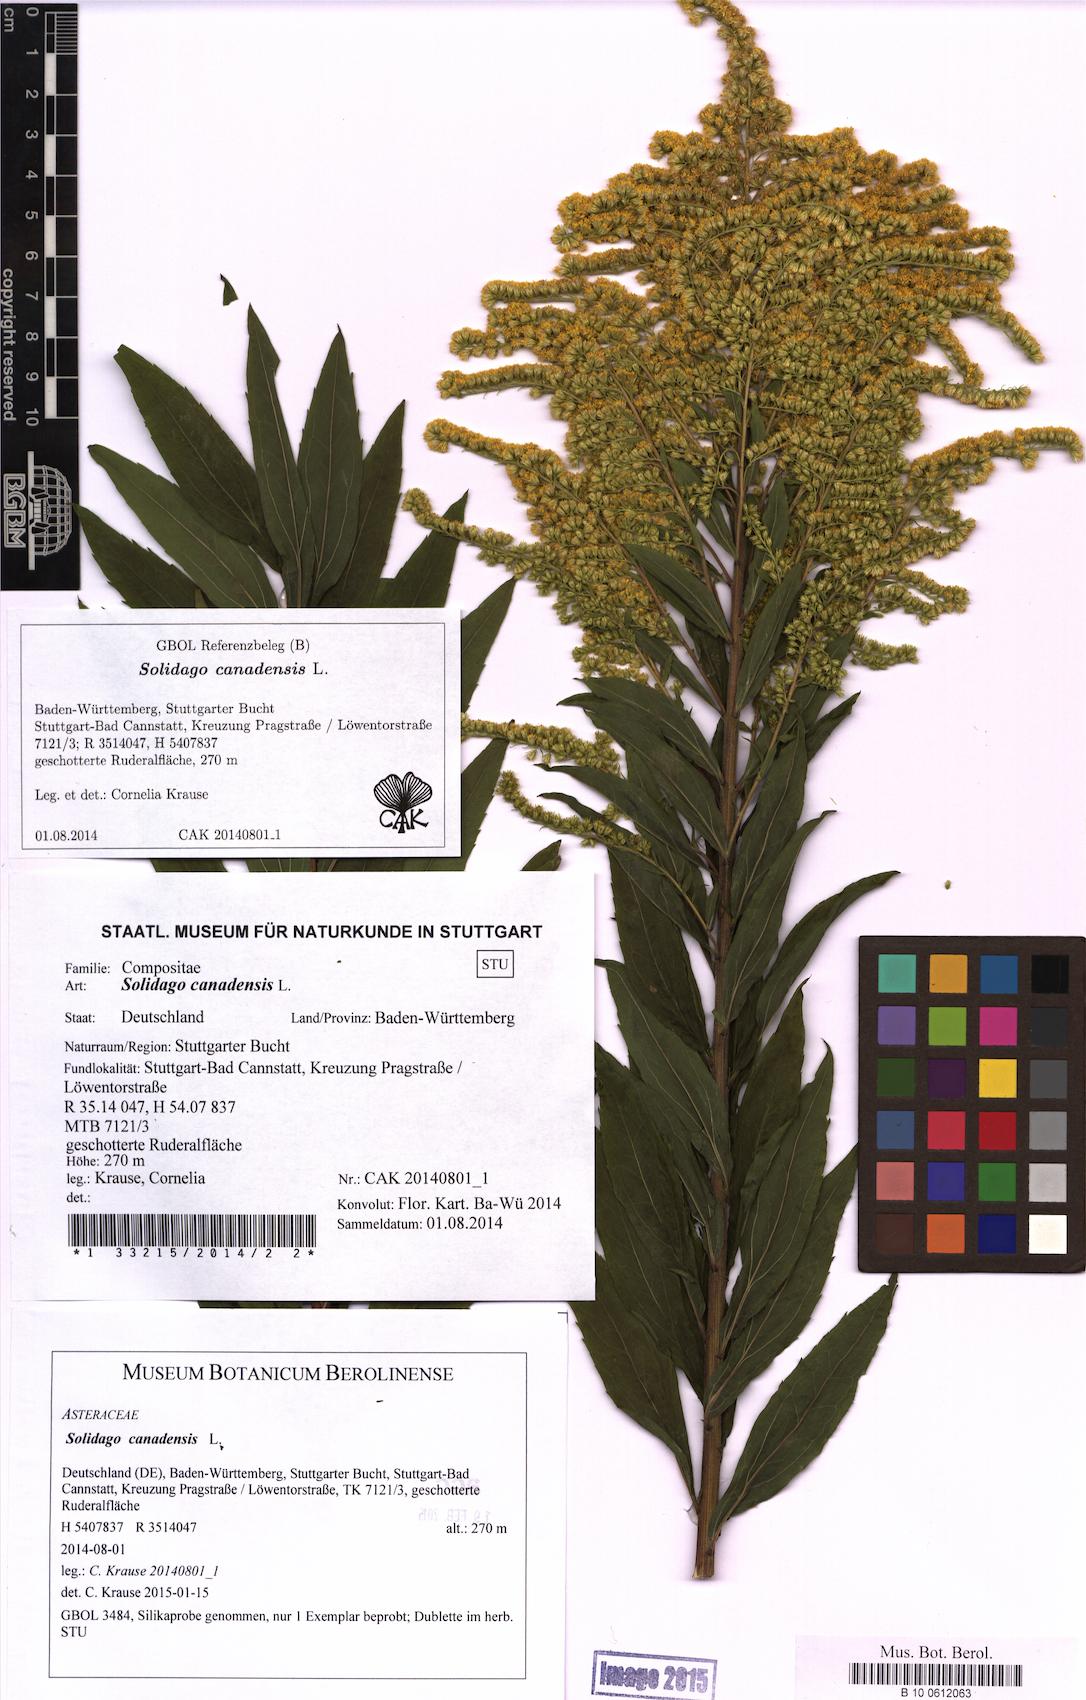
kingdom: Plantae
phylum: Tracheophyta
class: Magnoliopsida
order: Asterales
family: Asteraceae
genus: Solidago
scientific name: Solidago canadensis
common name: Canada goldenrod
